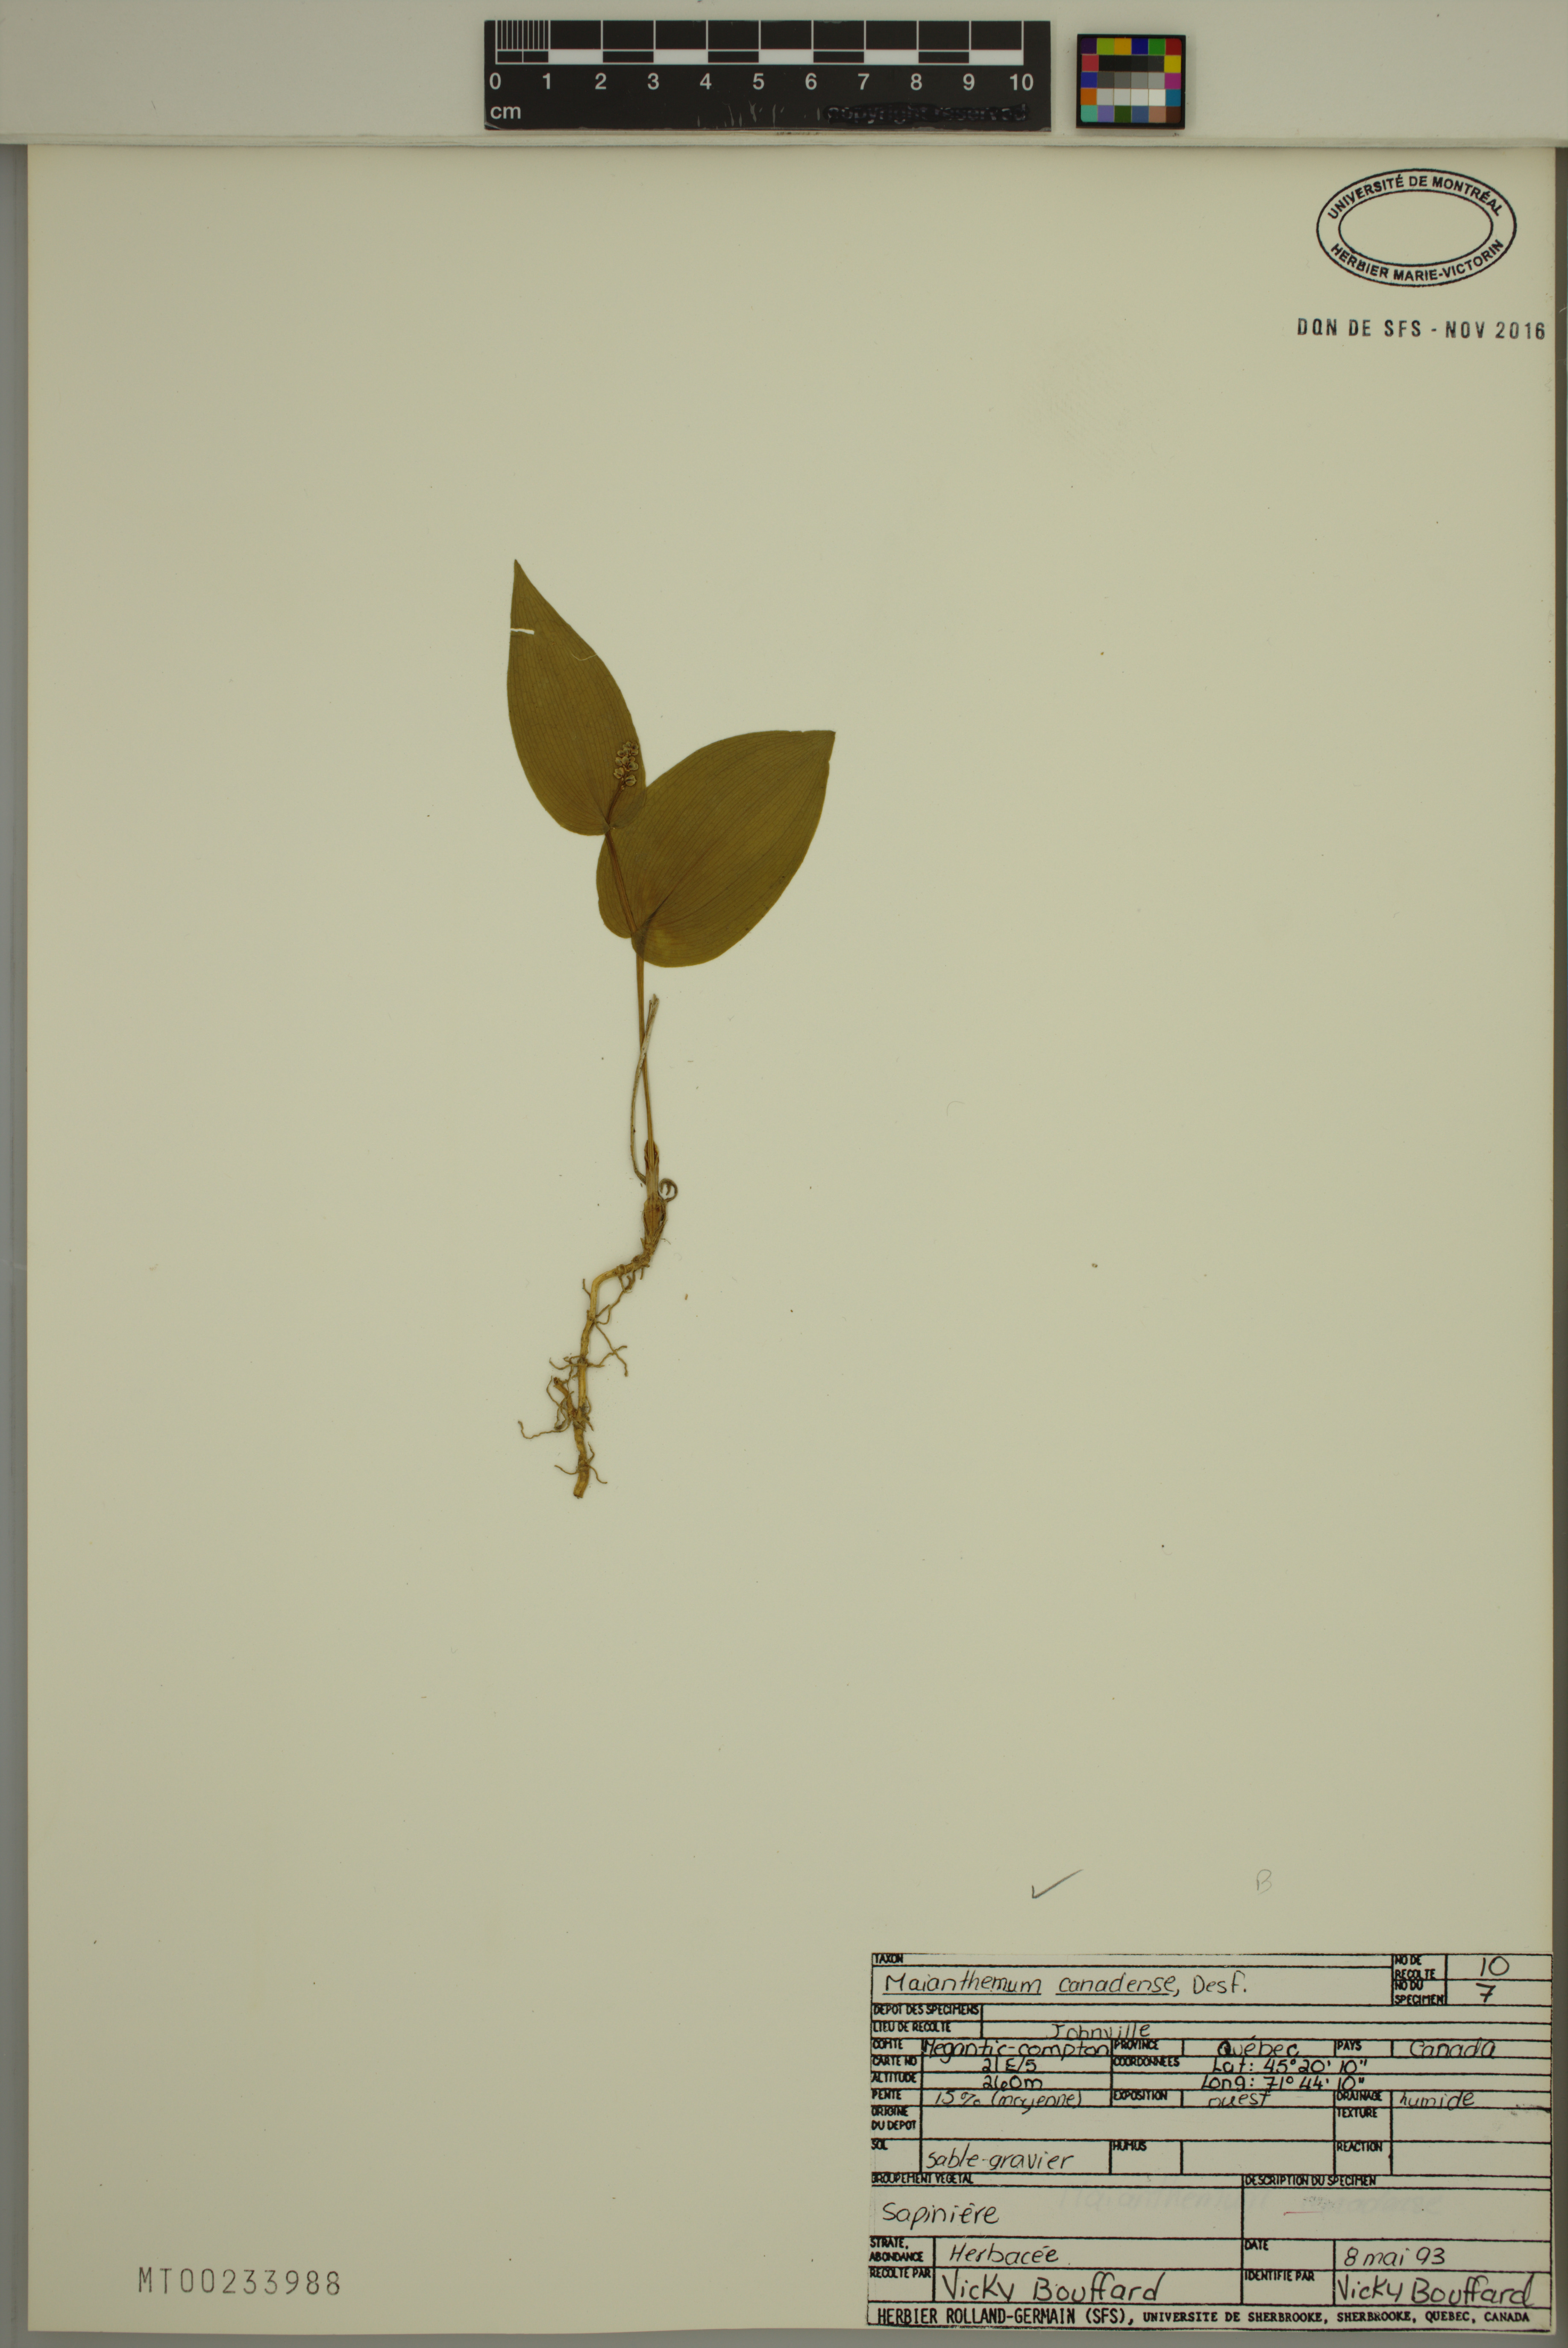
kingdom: Plantae
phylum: Tracheophyta
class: Liliopsida
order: Asparagales
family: Asparagaceae
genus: Maianthemum
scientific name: Maianthemum canadense
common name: False lily-of-the-valley
